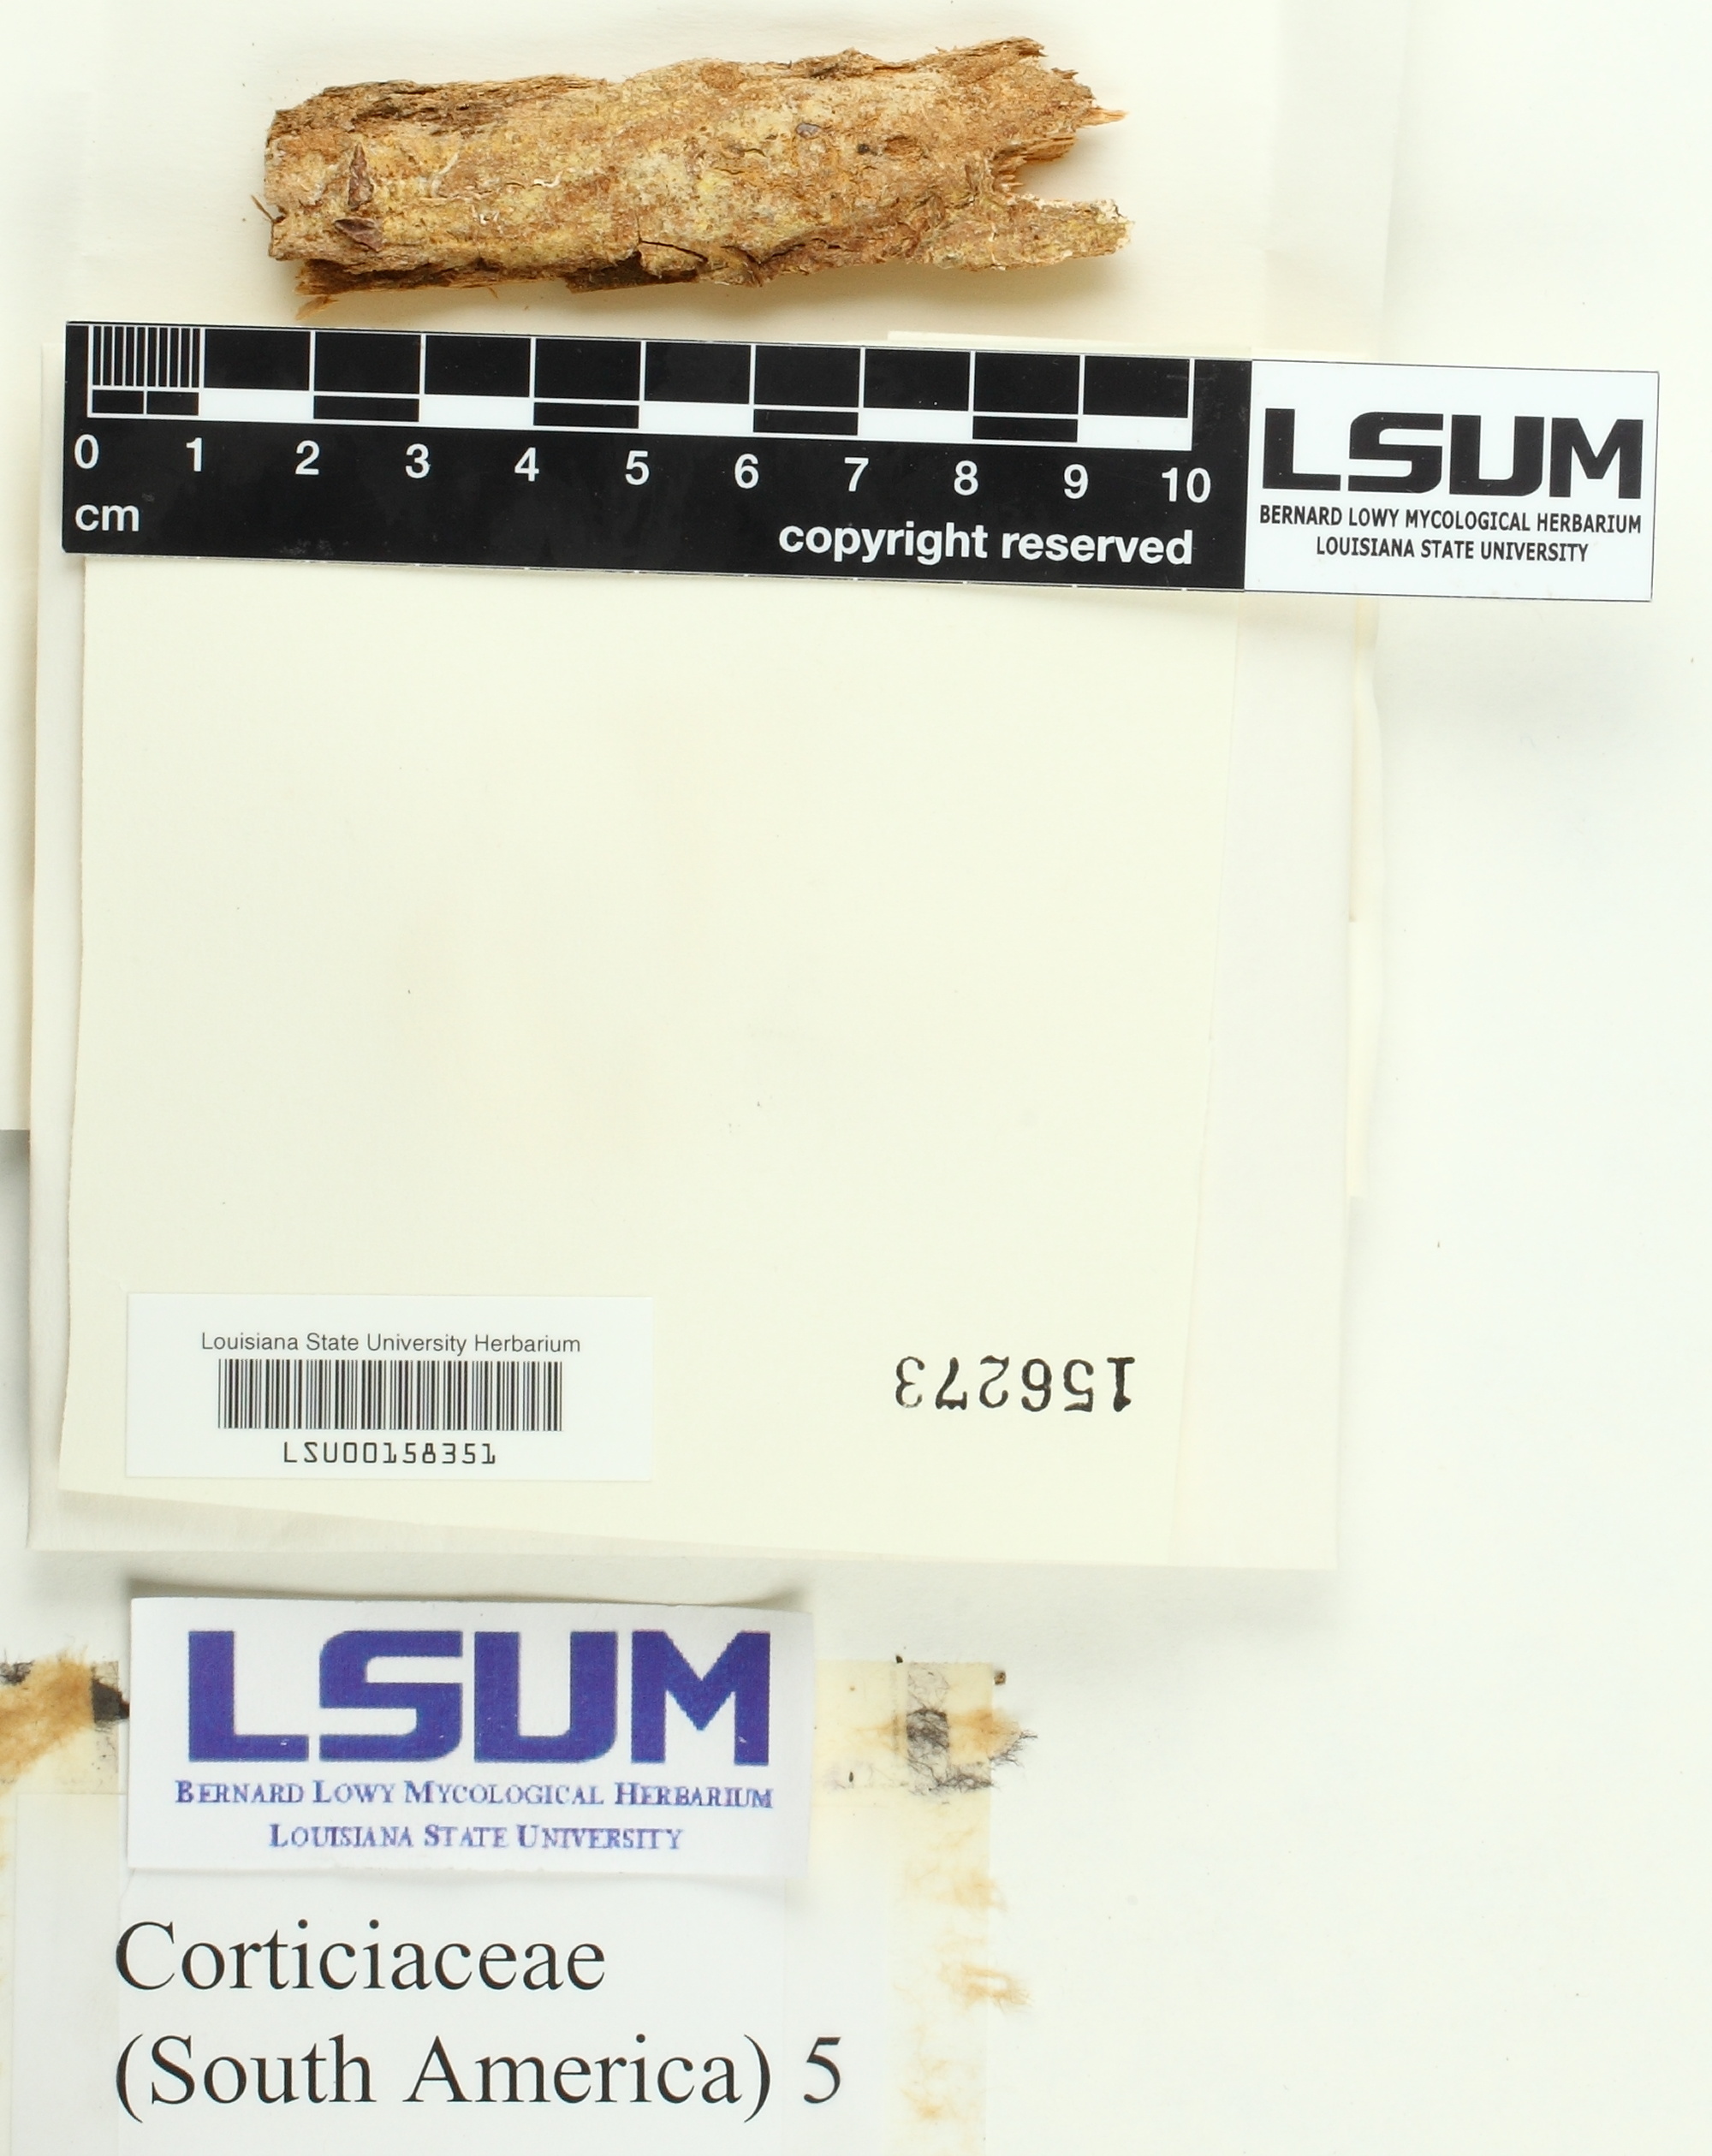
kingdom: Fungi
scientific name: Fungi
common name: Fungi
